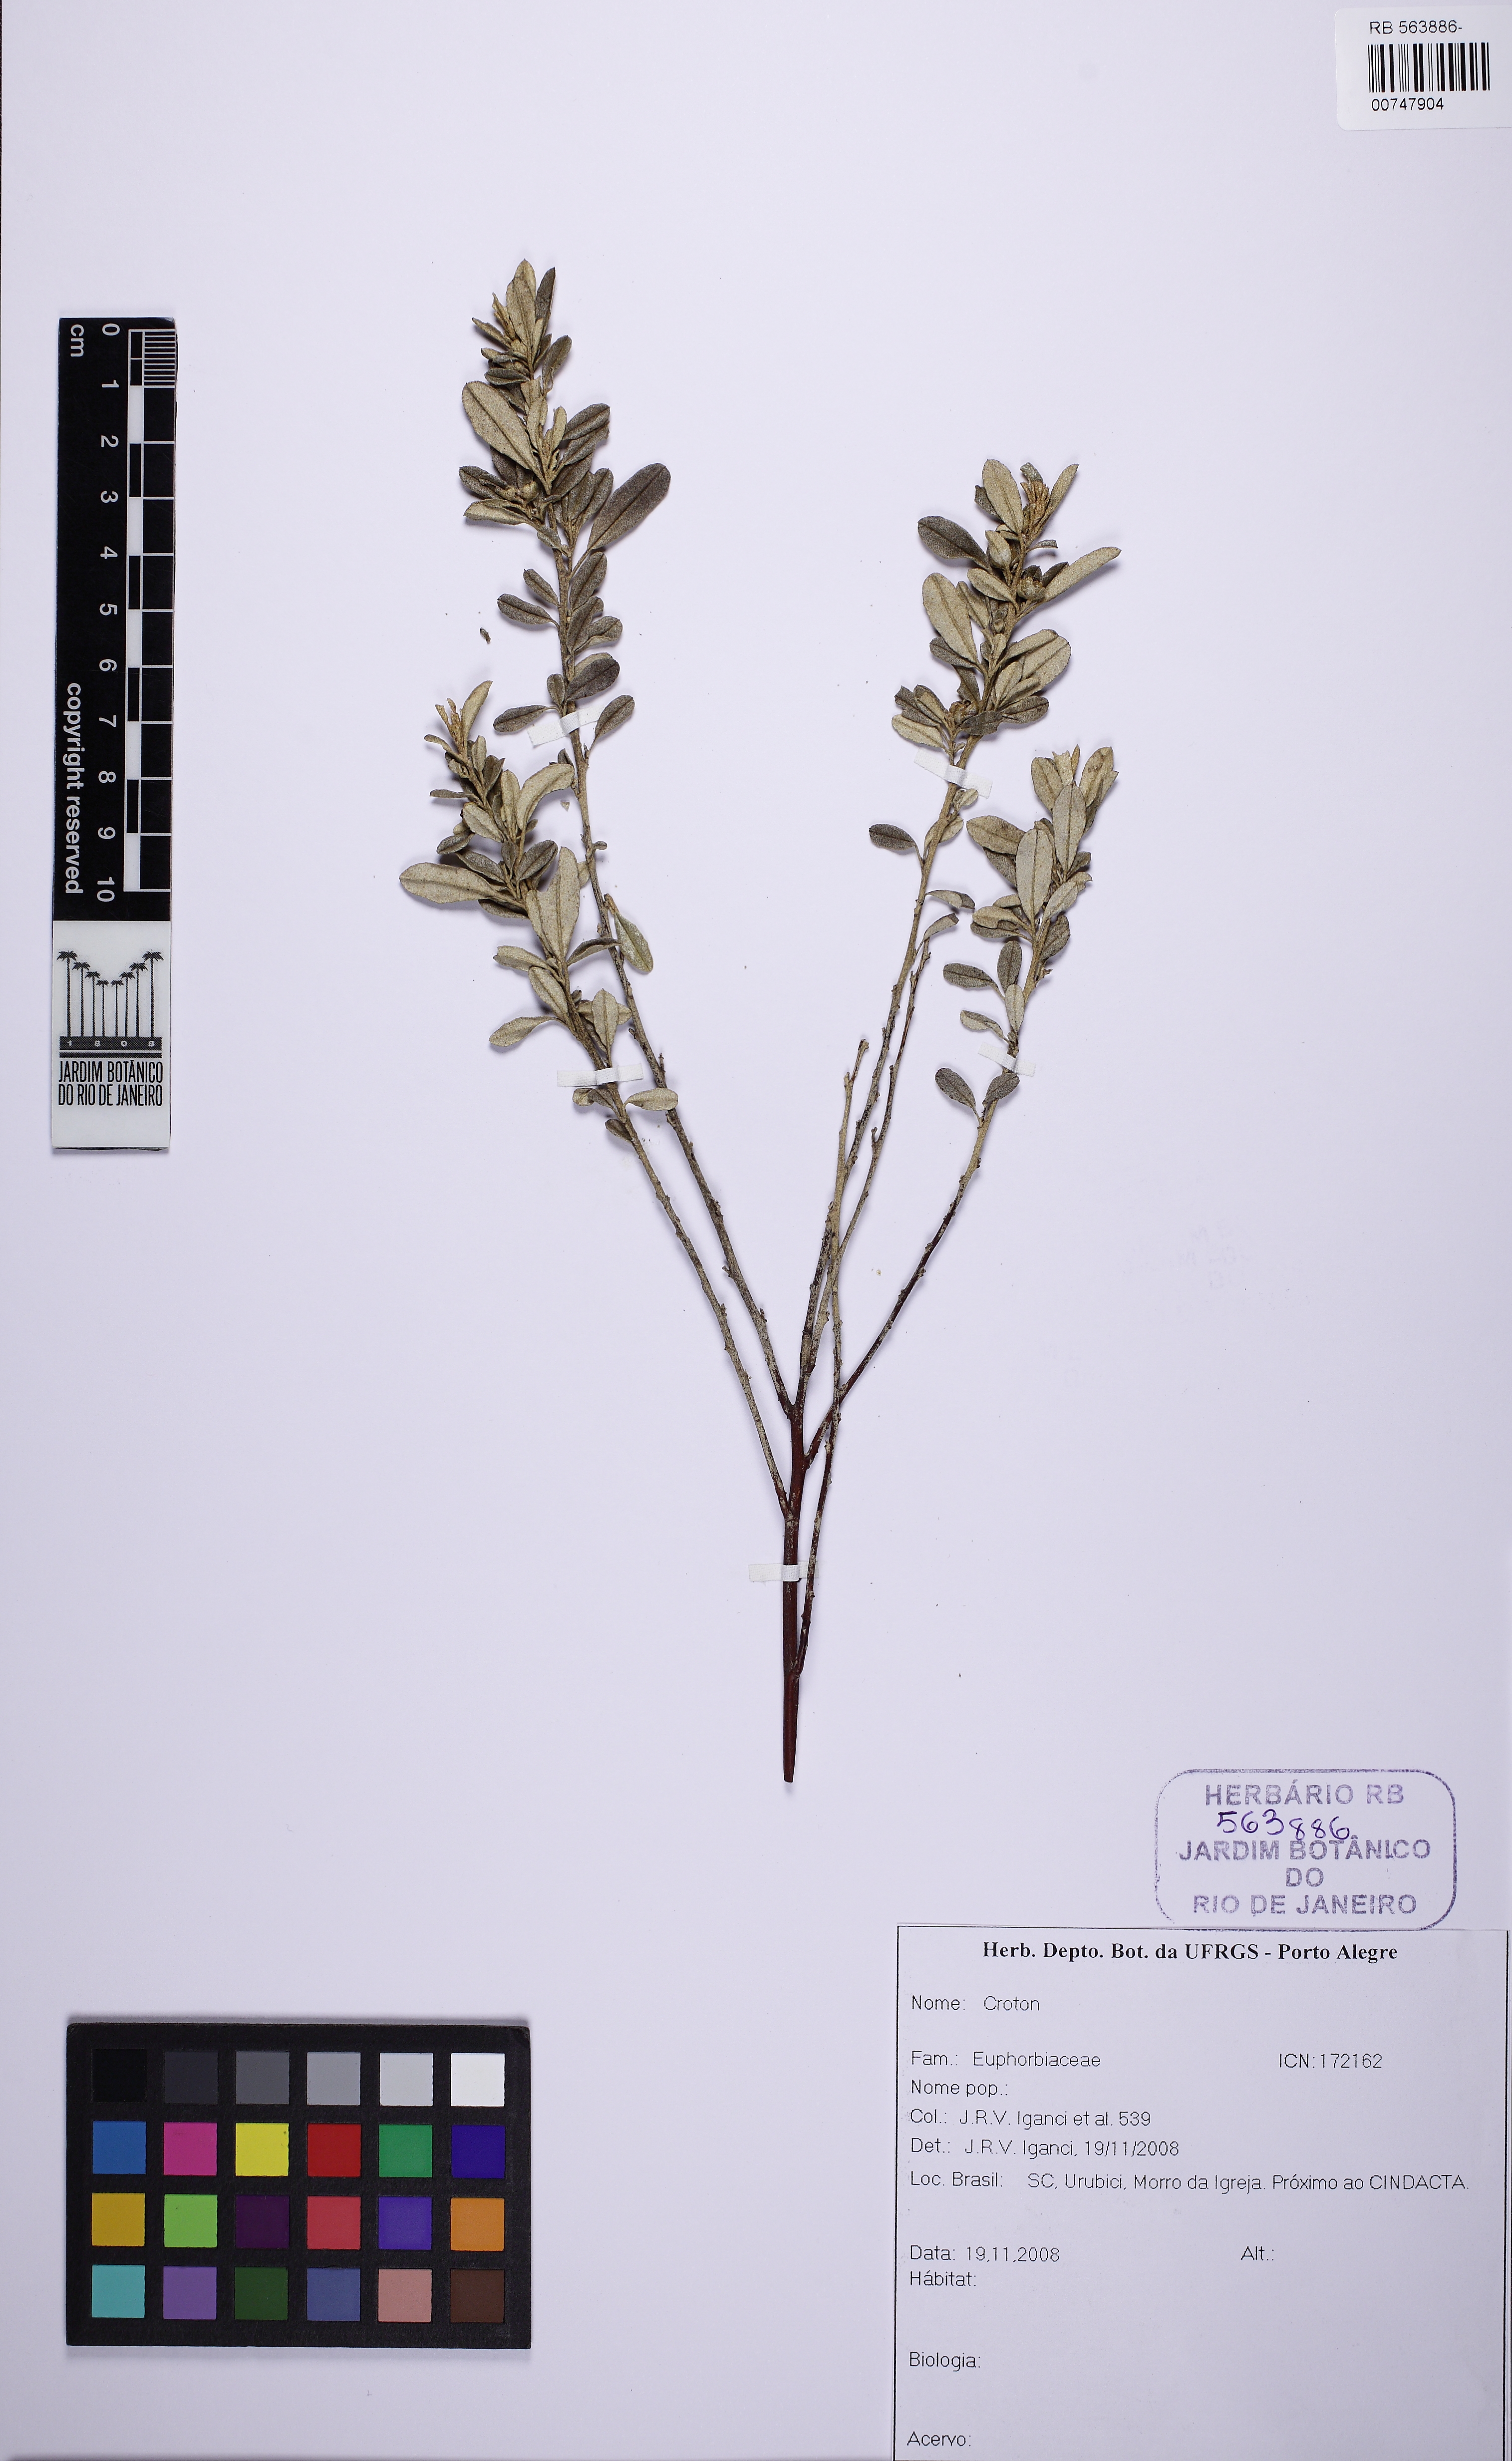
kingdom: Plantae
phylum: Tracheophyta
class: Magnoliopsida
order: Malpighiales
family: Euphorbiaceae
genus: Croton
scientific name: Croton erythroxyloides
